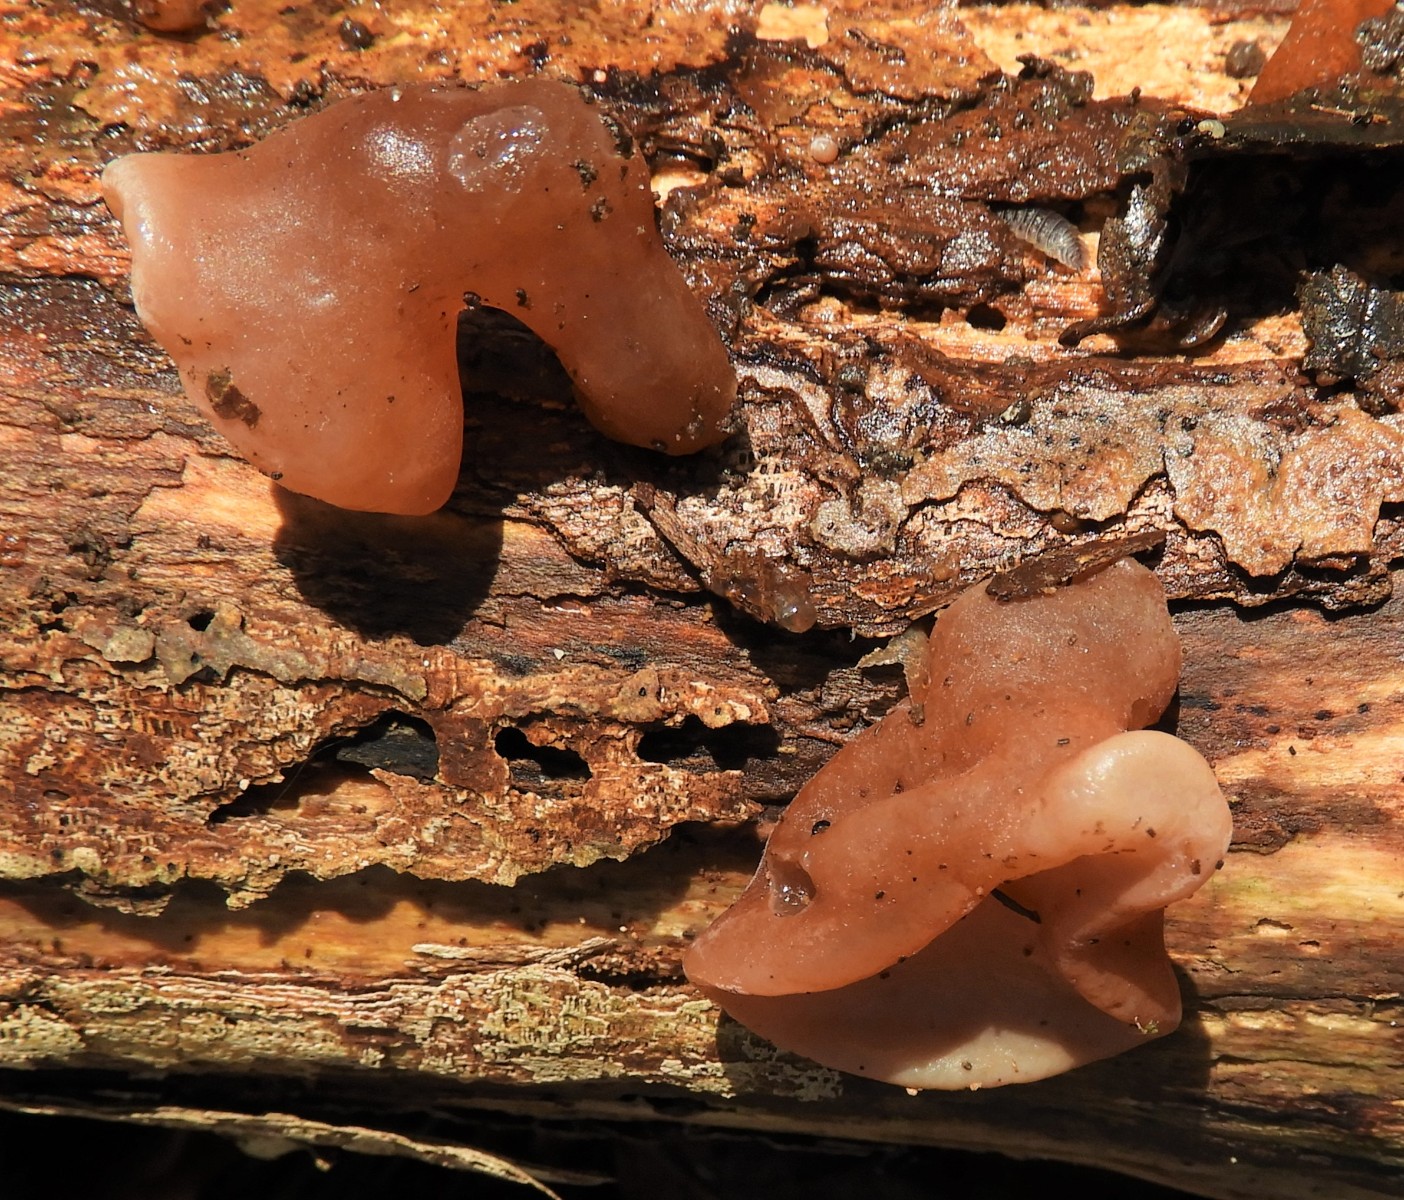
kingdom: Fungi
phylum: Basidiomycota
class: Agaricomycetes
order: Auriculariales
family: Auriculariaceae
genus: Auricularia
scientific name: Auricularia auricula-judae
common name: almindelig judasøre
